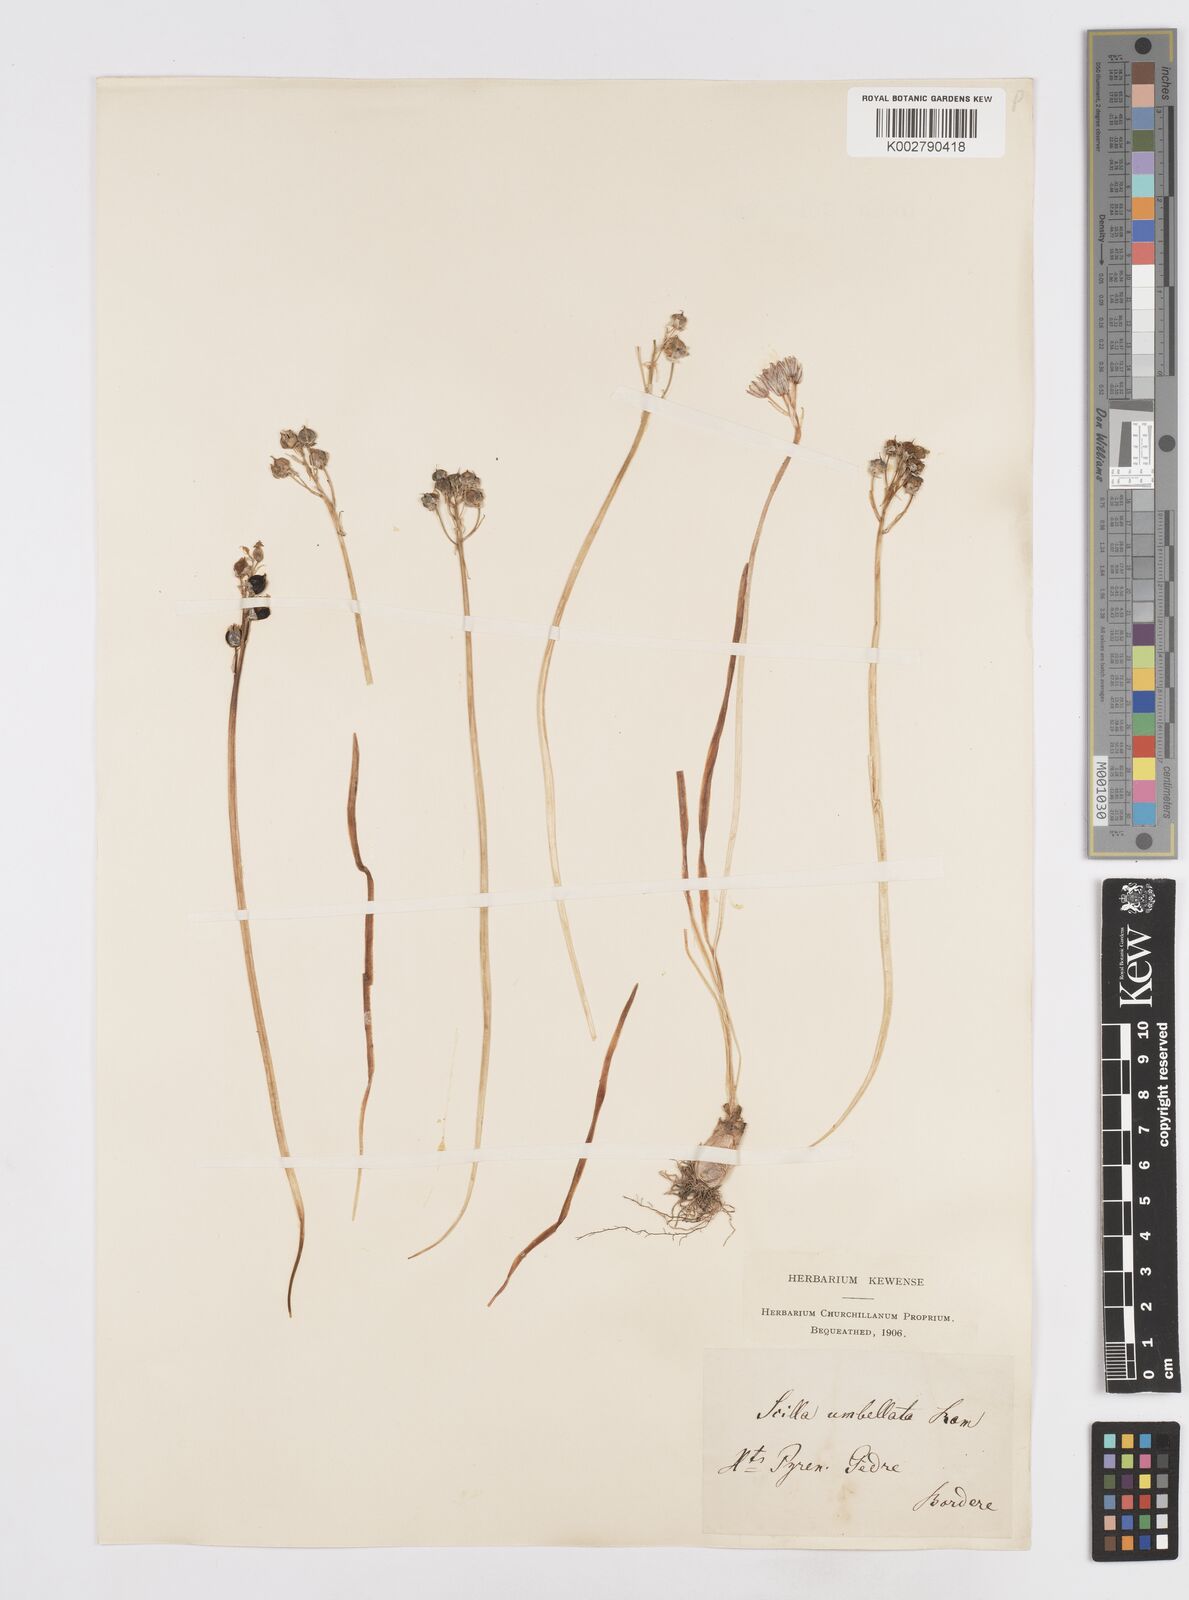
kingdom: Plantae
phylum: Tracheophyta
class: Liliopsida
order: Asparagales
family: Asparagaceae
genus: Scilla
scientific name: Scilla verna
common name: Spring squill
